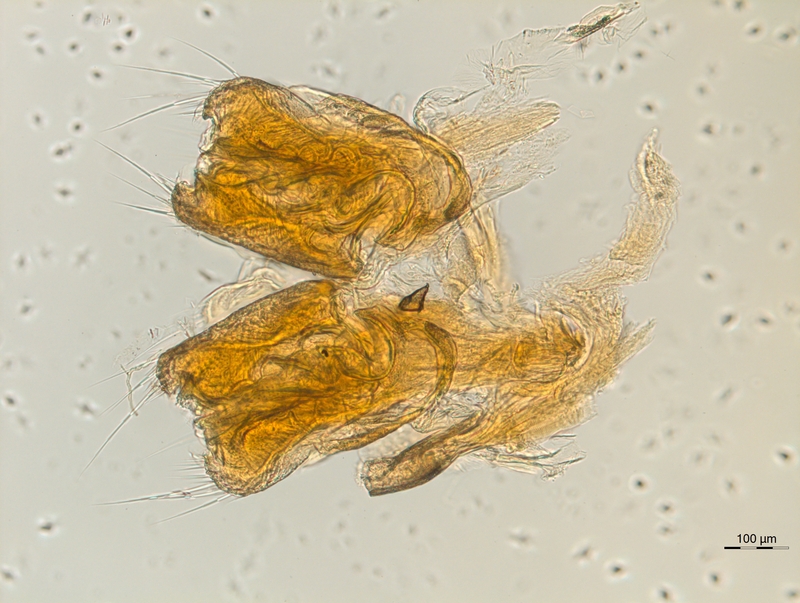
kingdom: Animalia
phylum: Arthropoda
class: Diplopoda
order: Chordeumatida
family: Diplomaragnidae
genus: Diplomaragna
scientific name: Diplomaragna gracilipes
